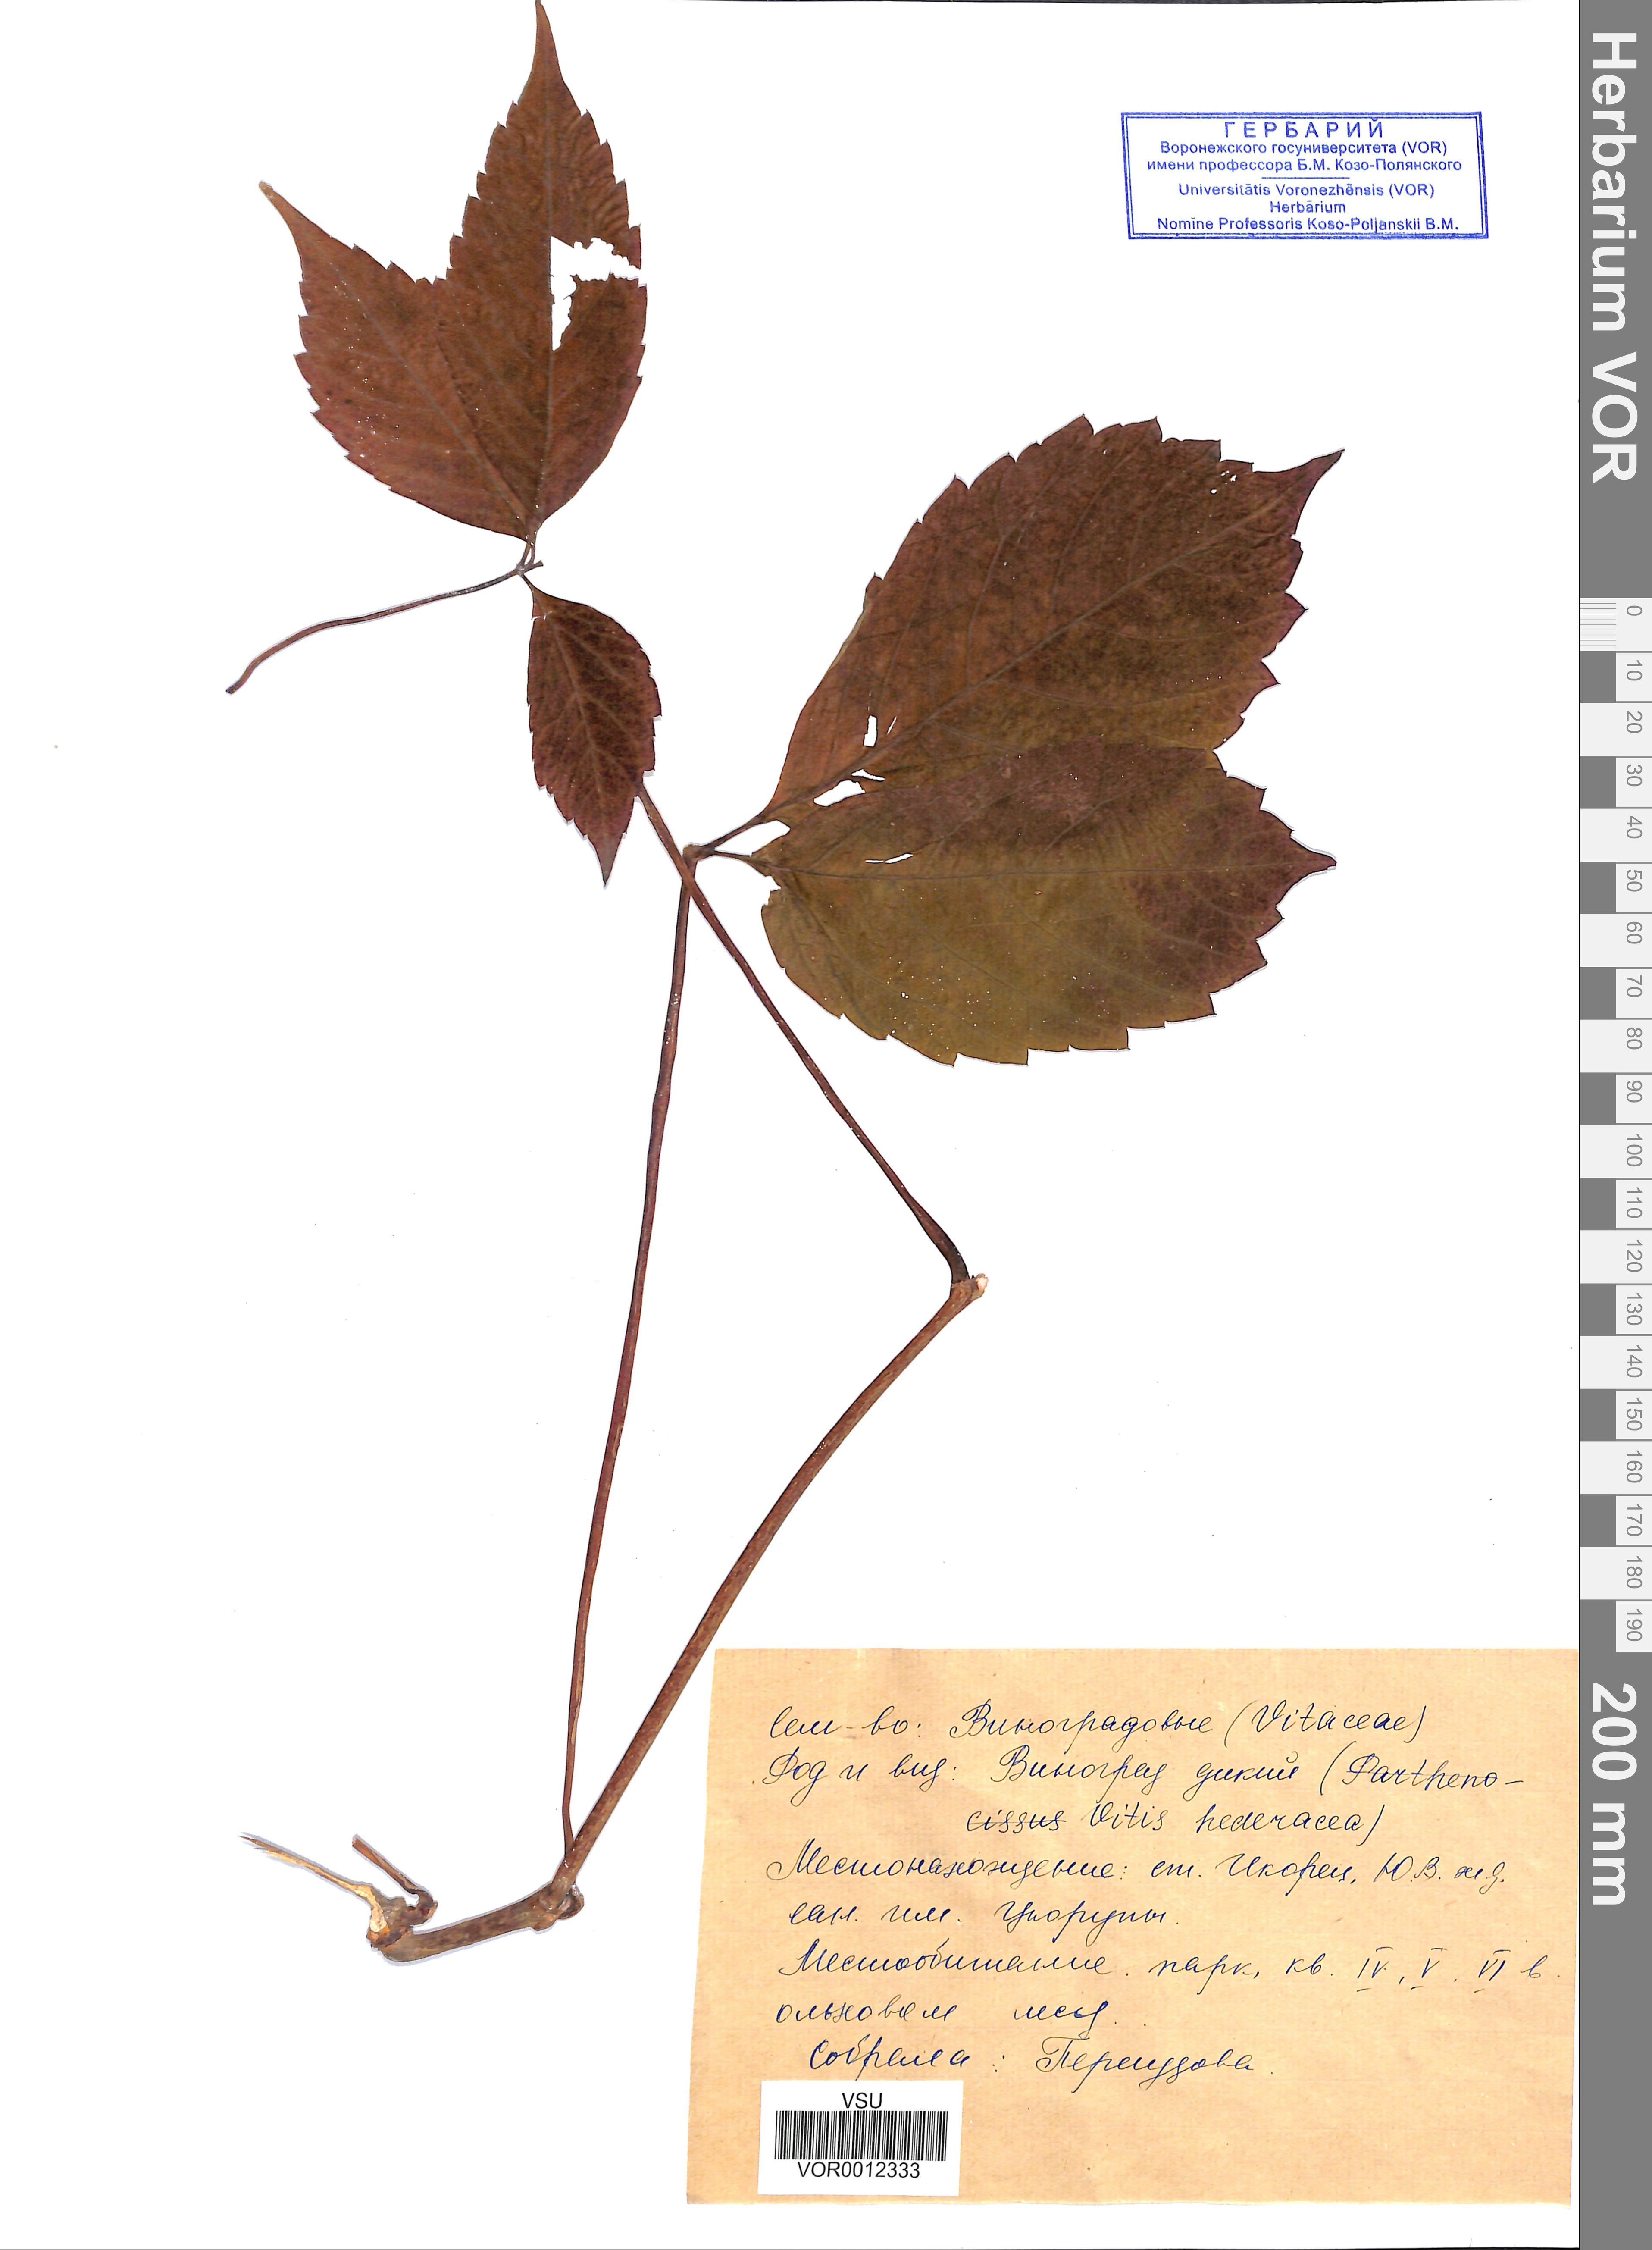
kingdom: Plantae
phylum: Tracheophyta
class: Magnoliopsida
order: Vitales
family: Vitaceae
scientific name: Vitaceae
